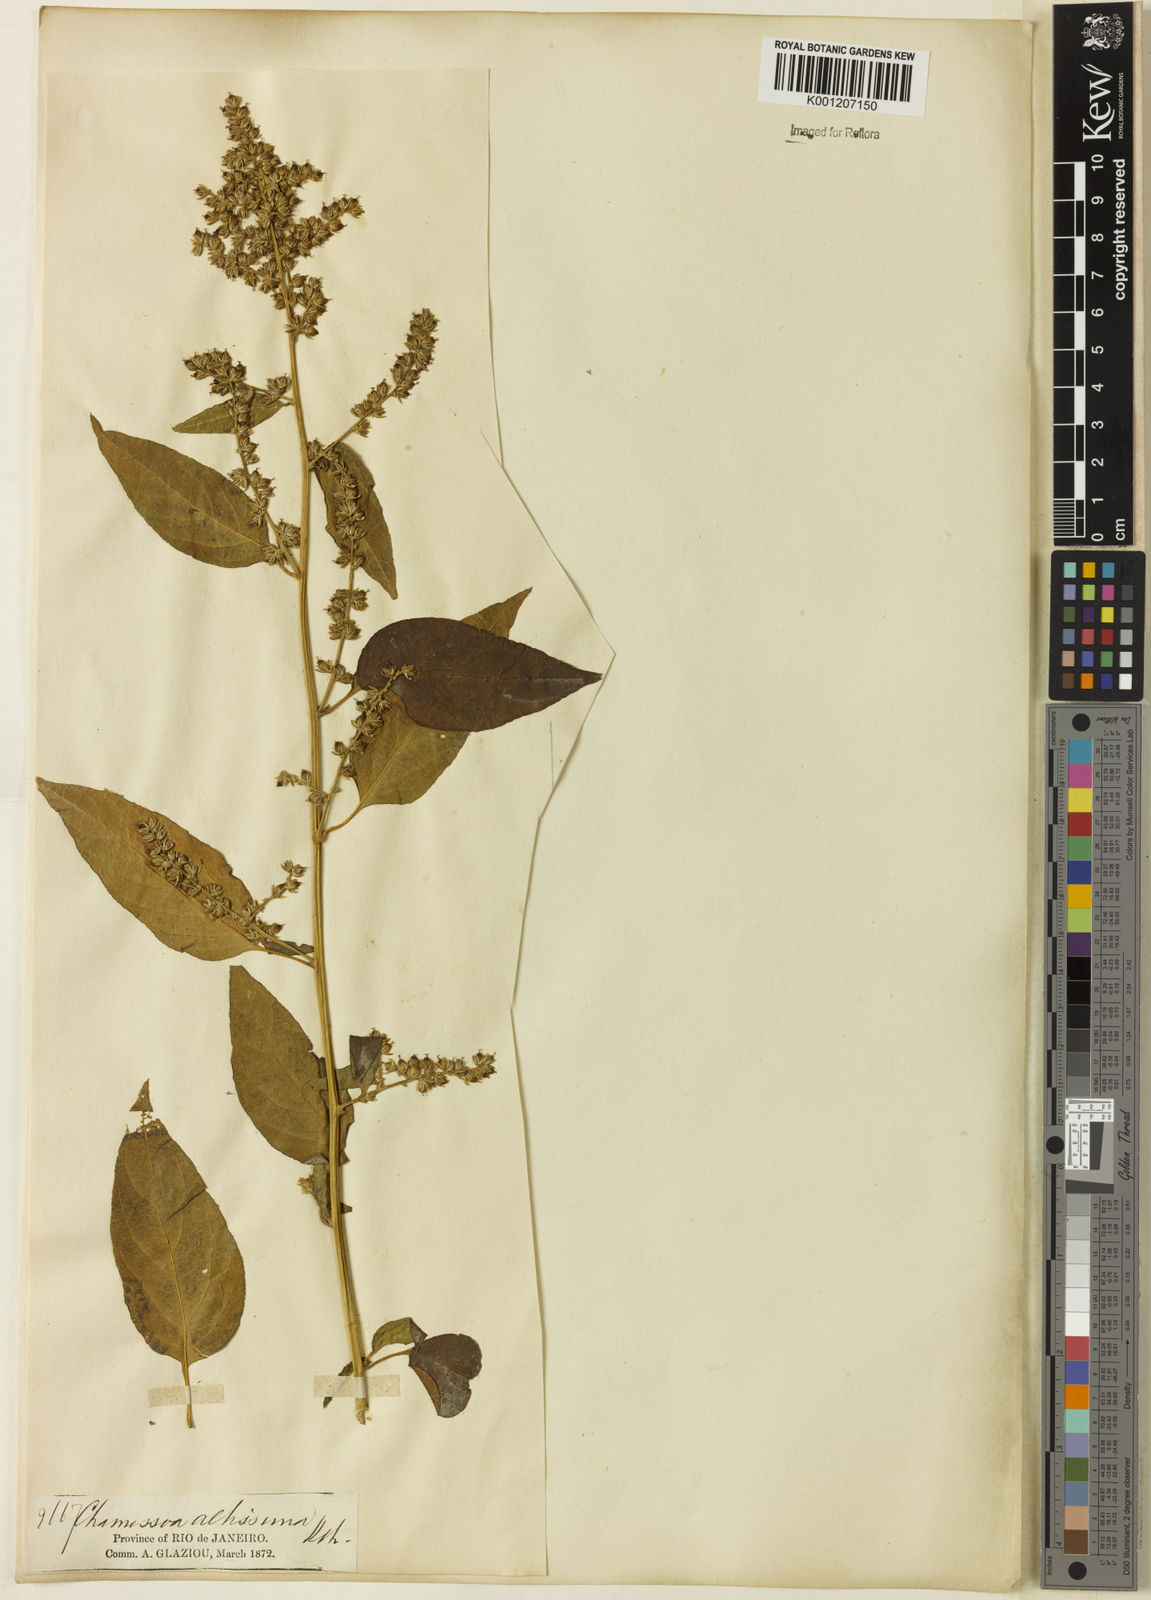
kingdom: Plantae
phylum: Tracheophyta
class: Magnoliopsida
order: Caryophyllales
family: Amaranthaceae
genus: Chamissoa
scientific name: Chamissoa altissima
